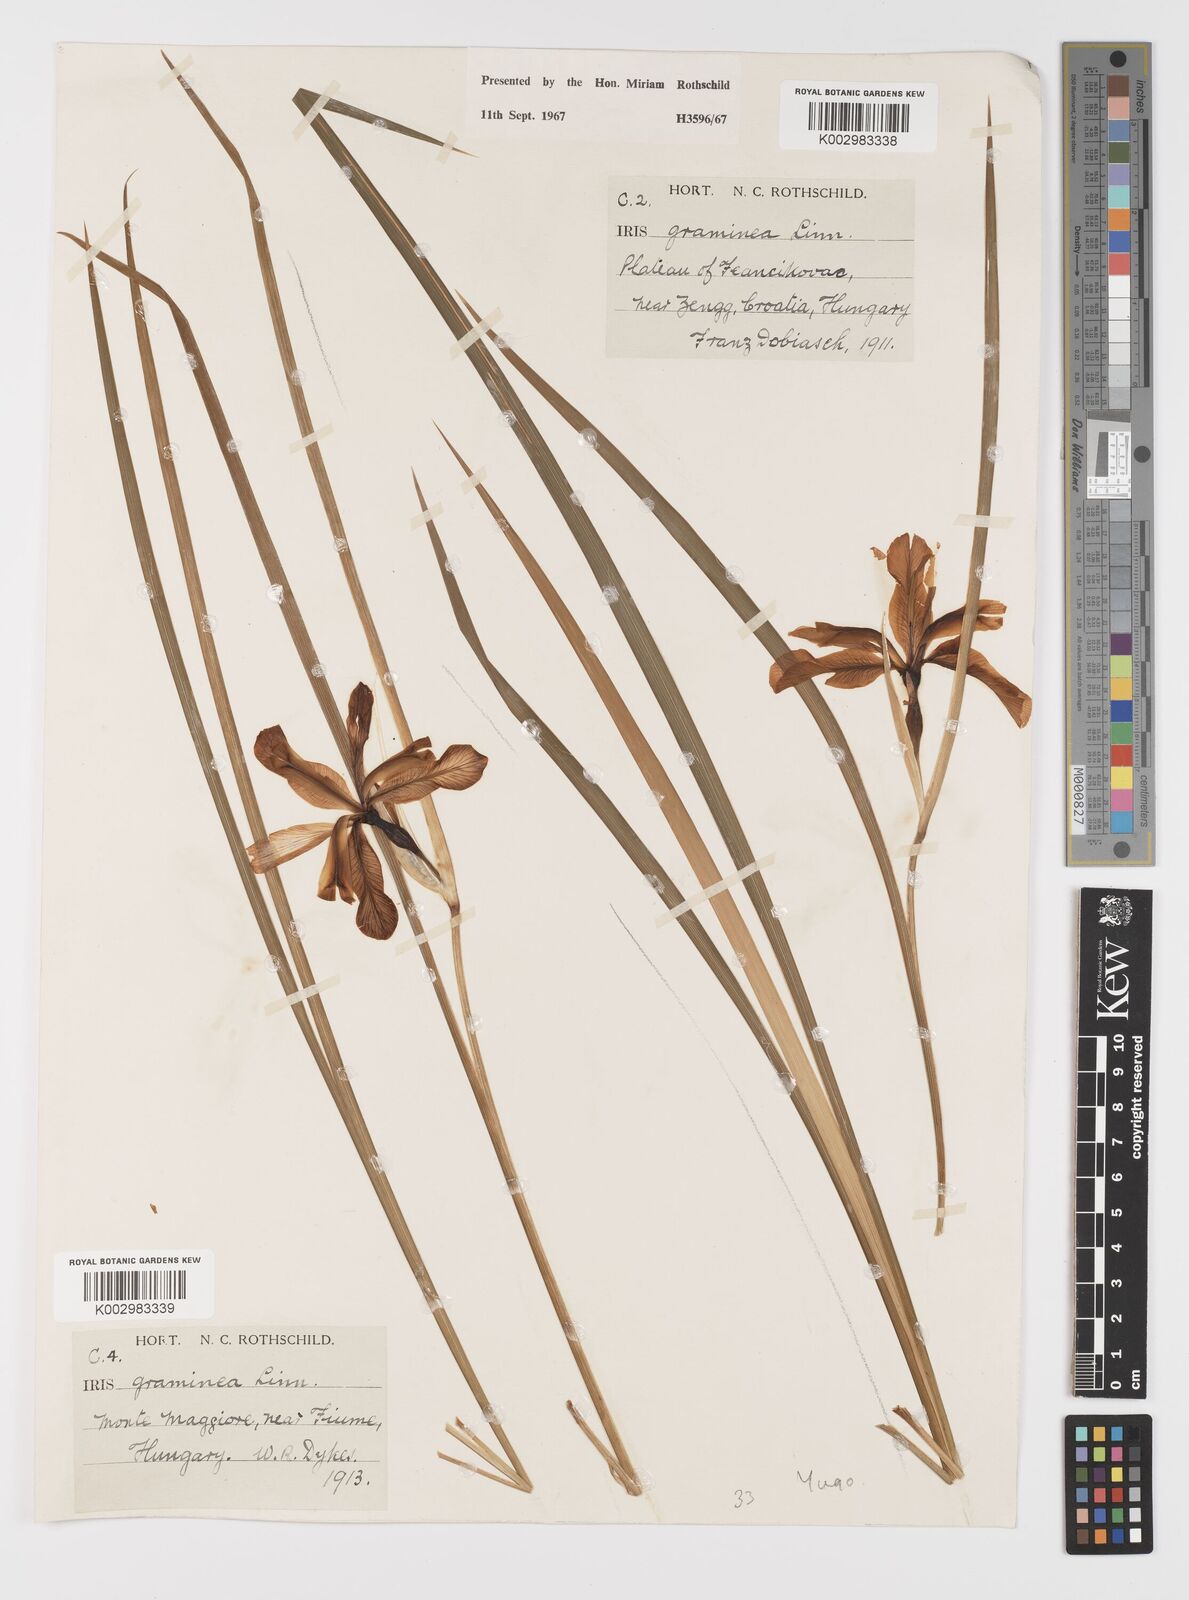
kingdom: Plantae
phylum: Tracheophyta
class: Liliopsida
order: Asparagales
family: Iridaceae
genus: Iris
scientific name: Iris graminea
